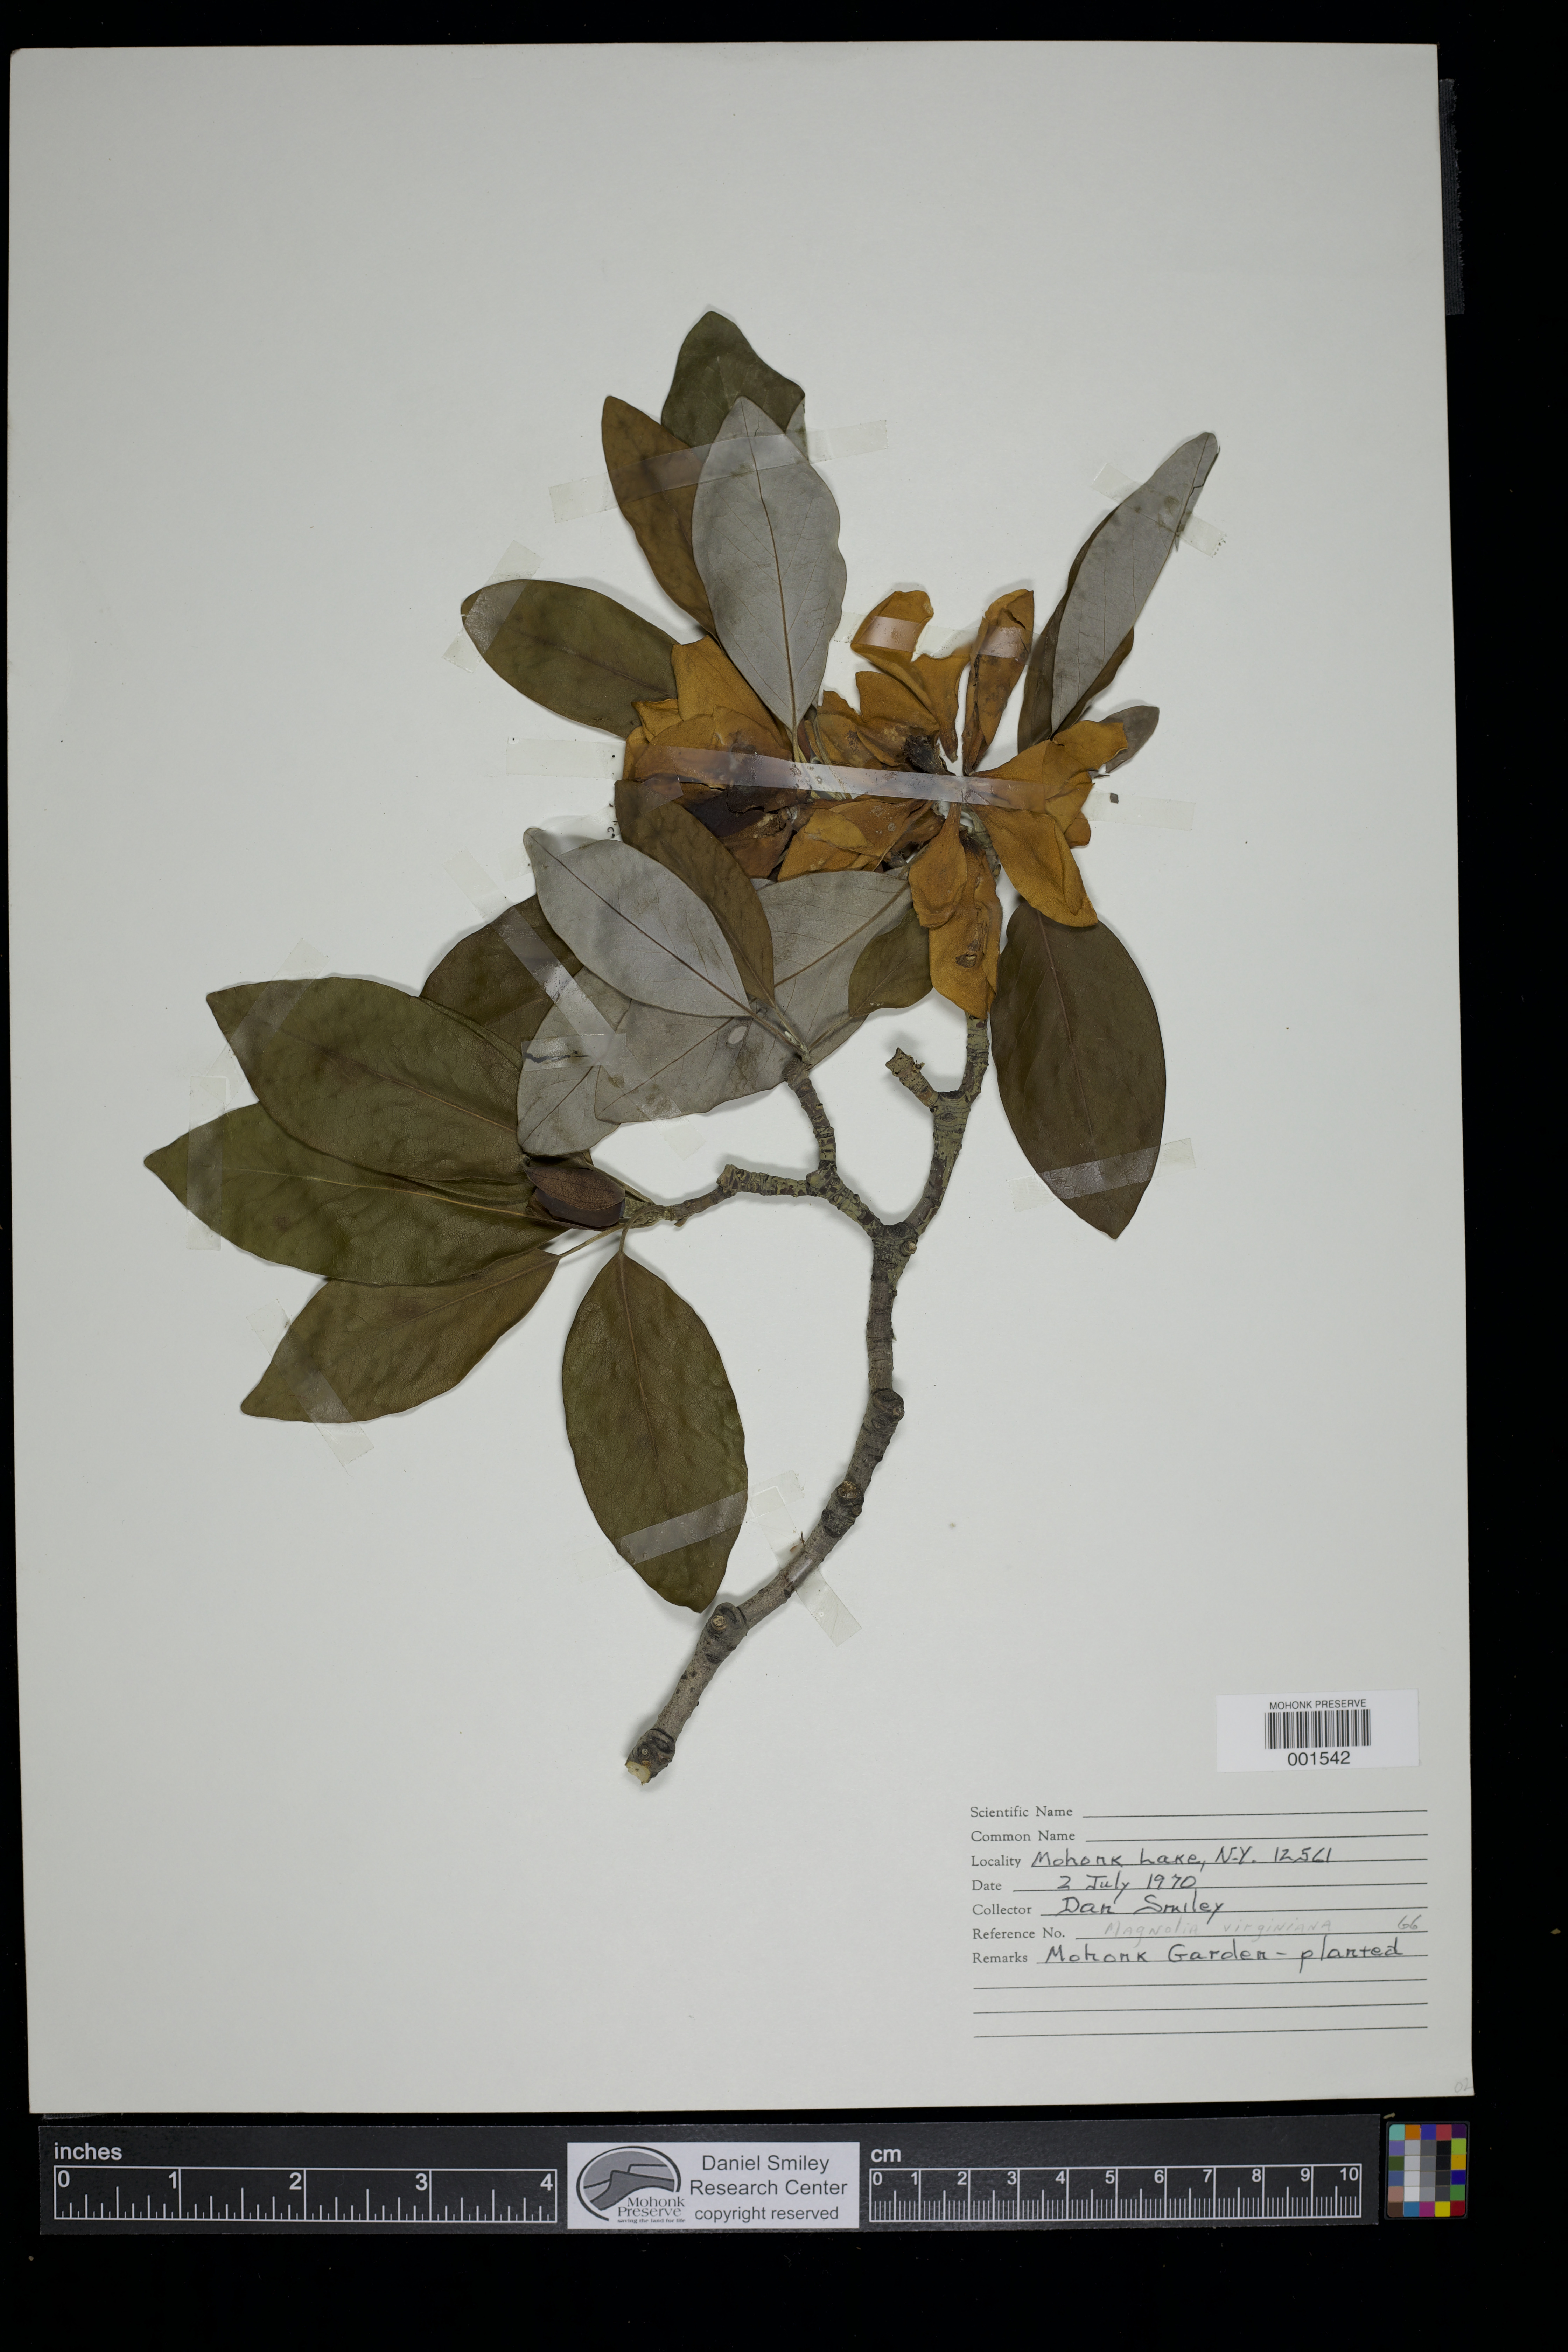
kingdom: Plantae
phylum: Tracheophyta
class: Magnoliopsida
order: Magnoliales
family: Magnoliaceae
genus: Magnolia
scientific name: Magnolia virginiana
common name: Swamp bay
